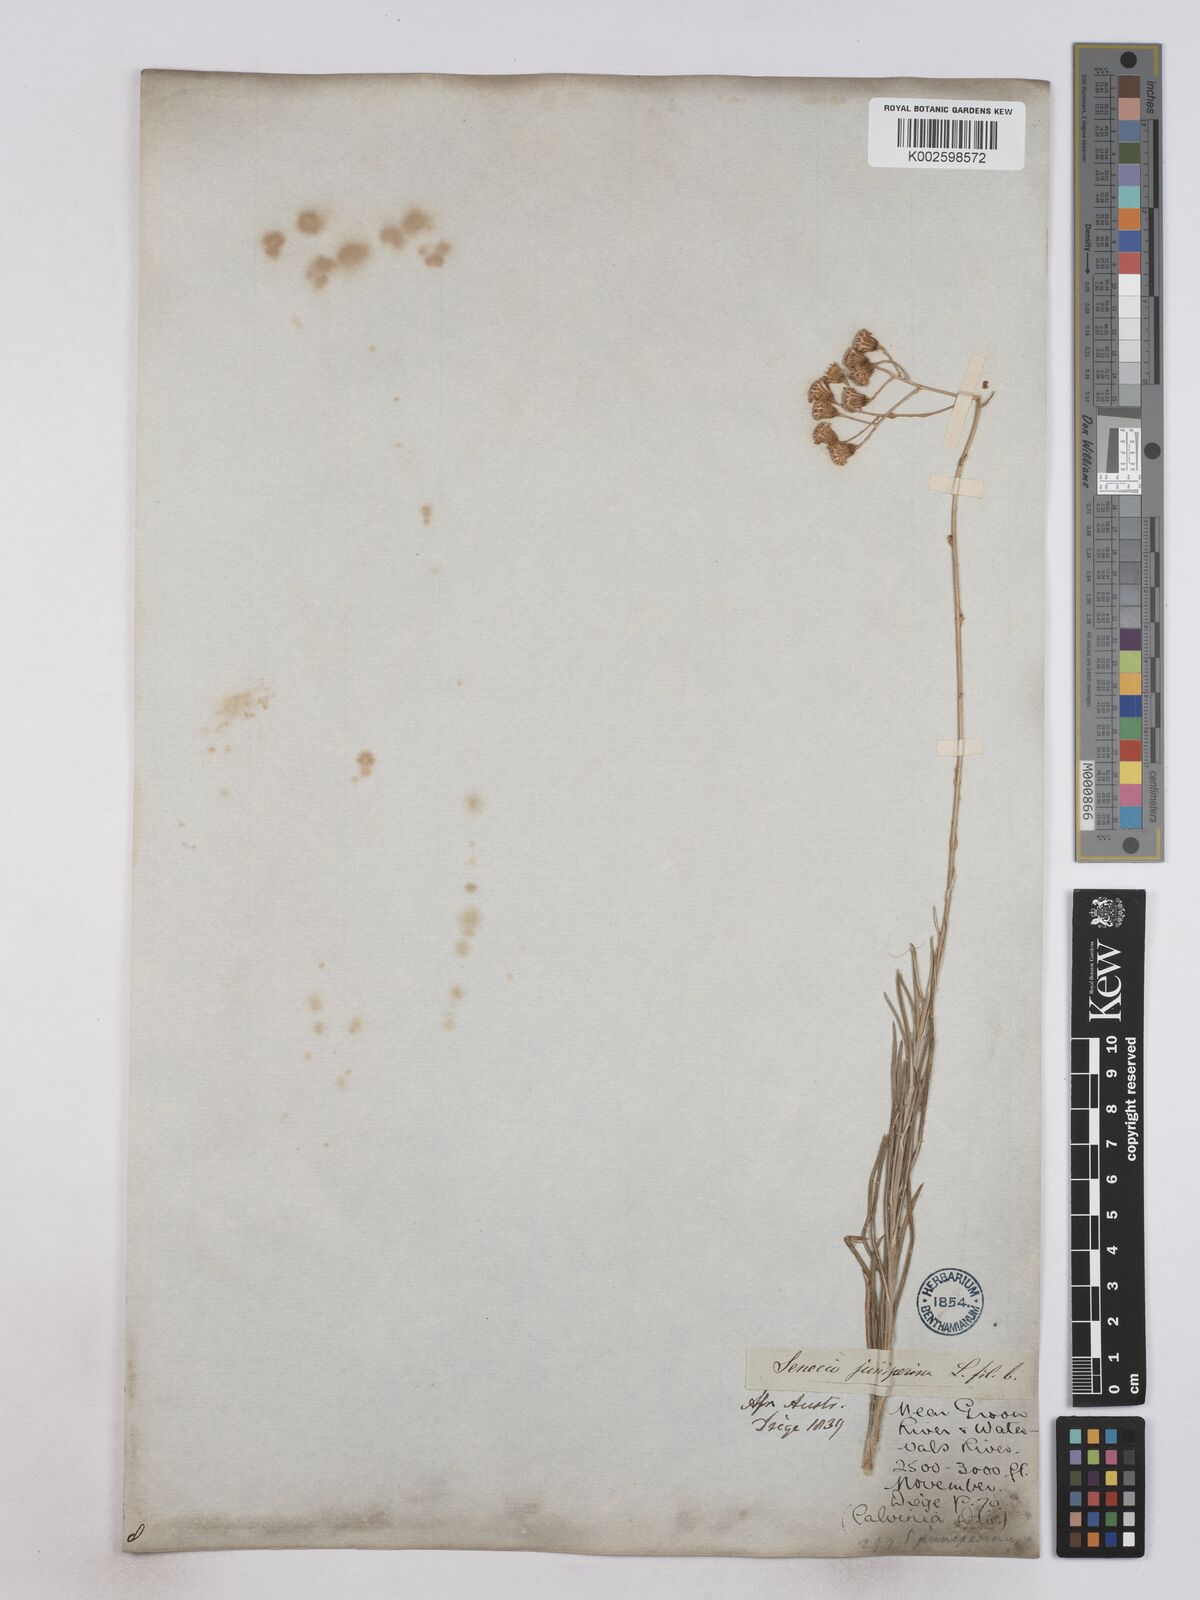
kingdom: Plantae
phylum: Tracheophyta
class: Magnoliopsida
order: Asterales
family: Asteraceae
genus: Senecio
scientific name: Senecio juniperinus
